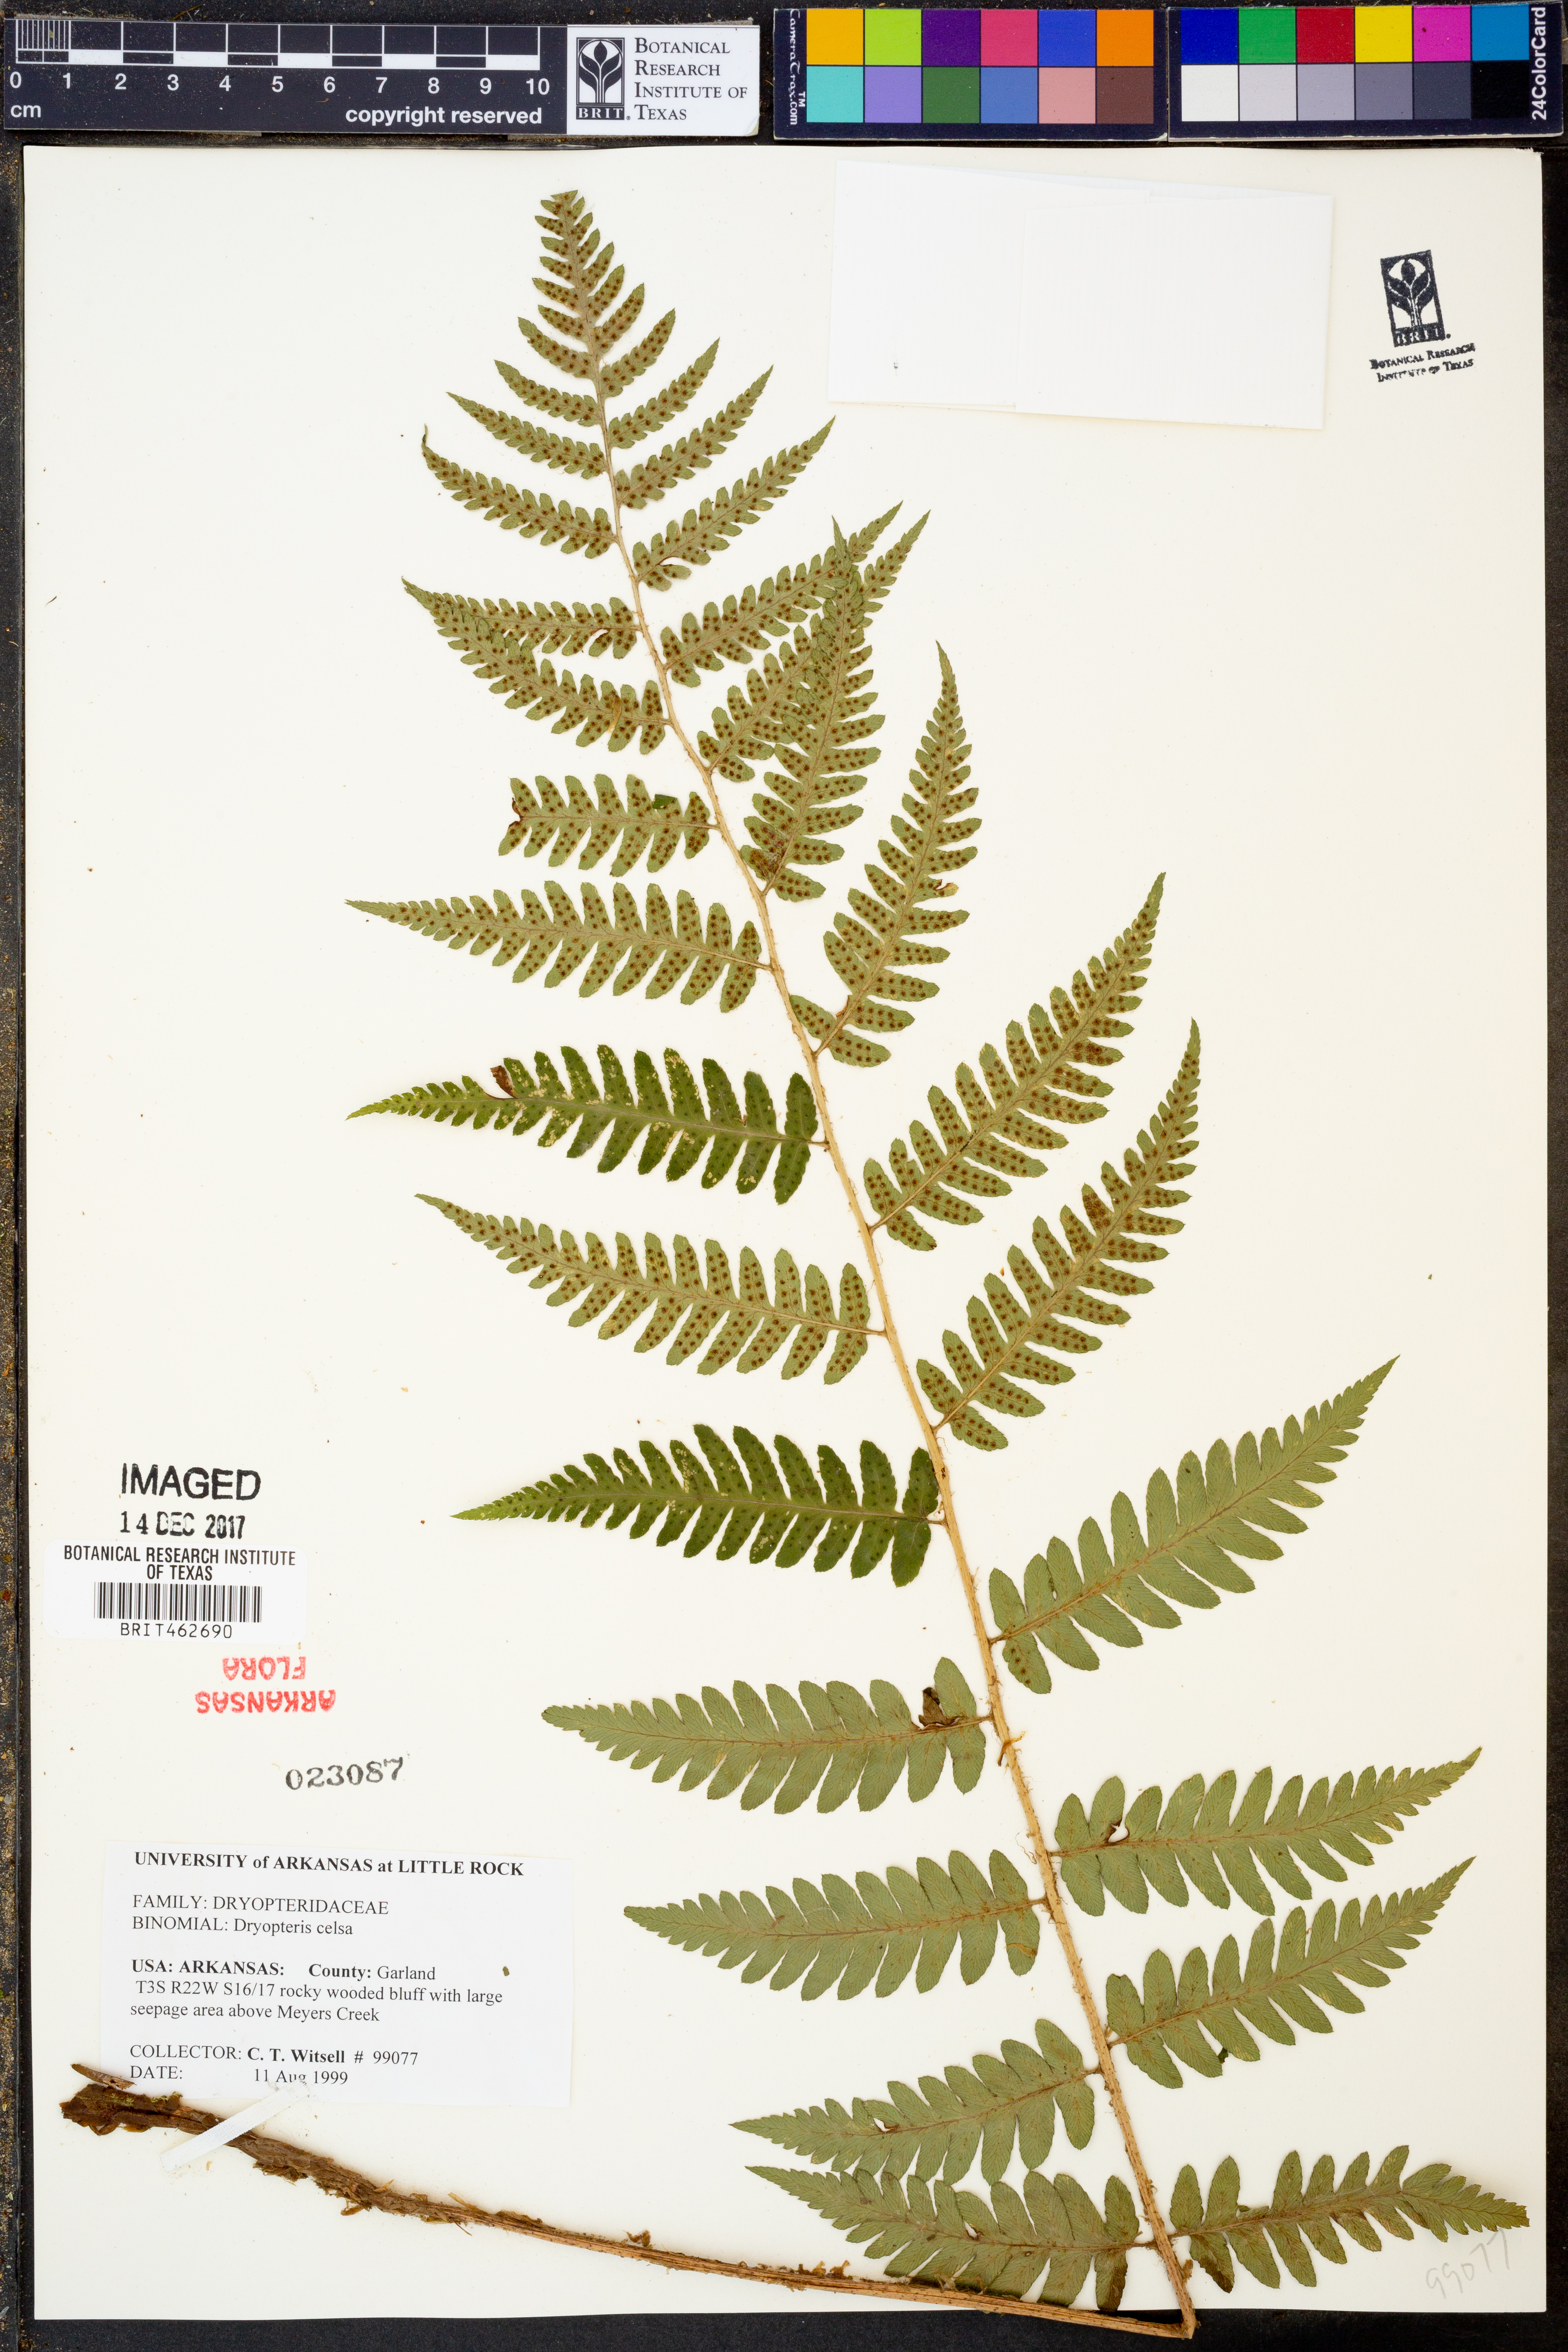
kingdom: Plantae
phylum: Tracheophyta
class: Polypodiopsida
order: Polypodiales
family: Dryopteridaceae
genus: Dryopteris
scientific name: Dryopteris celsa
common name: Log fern
